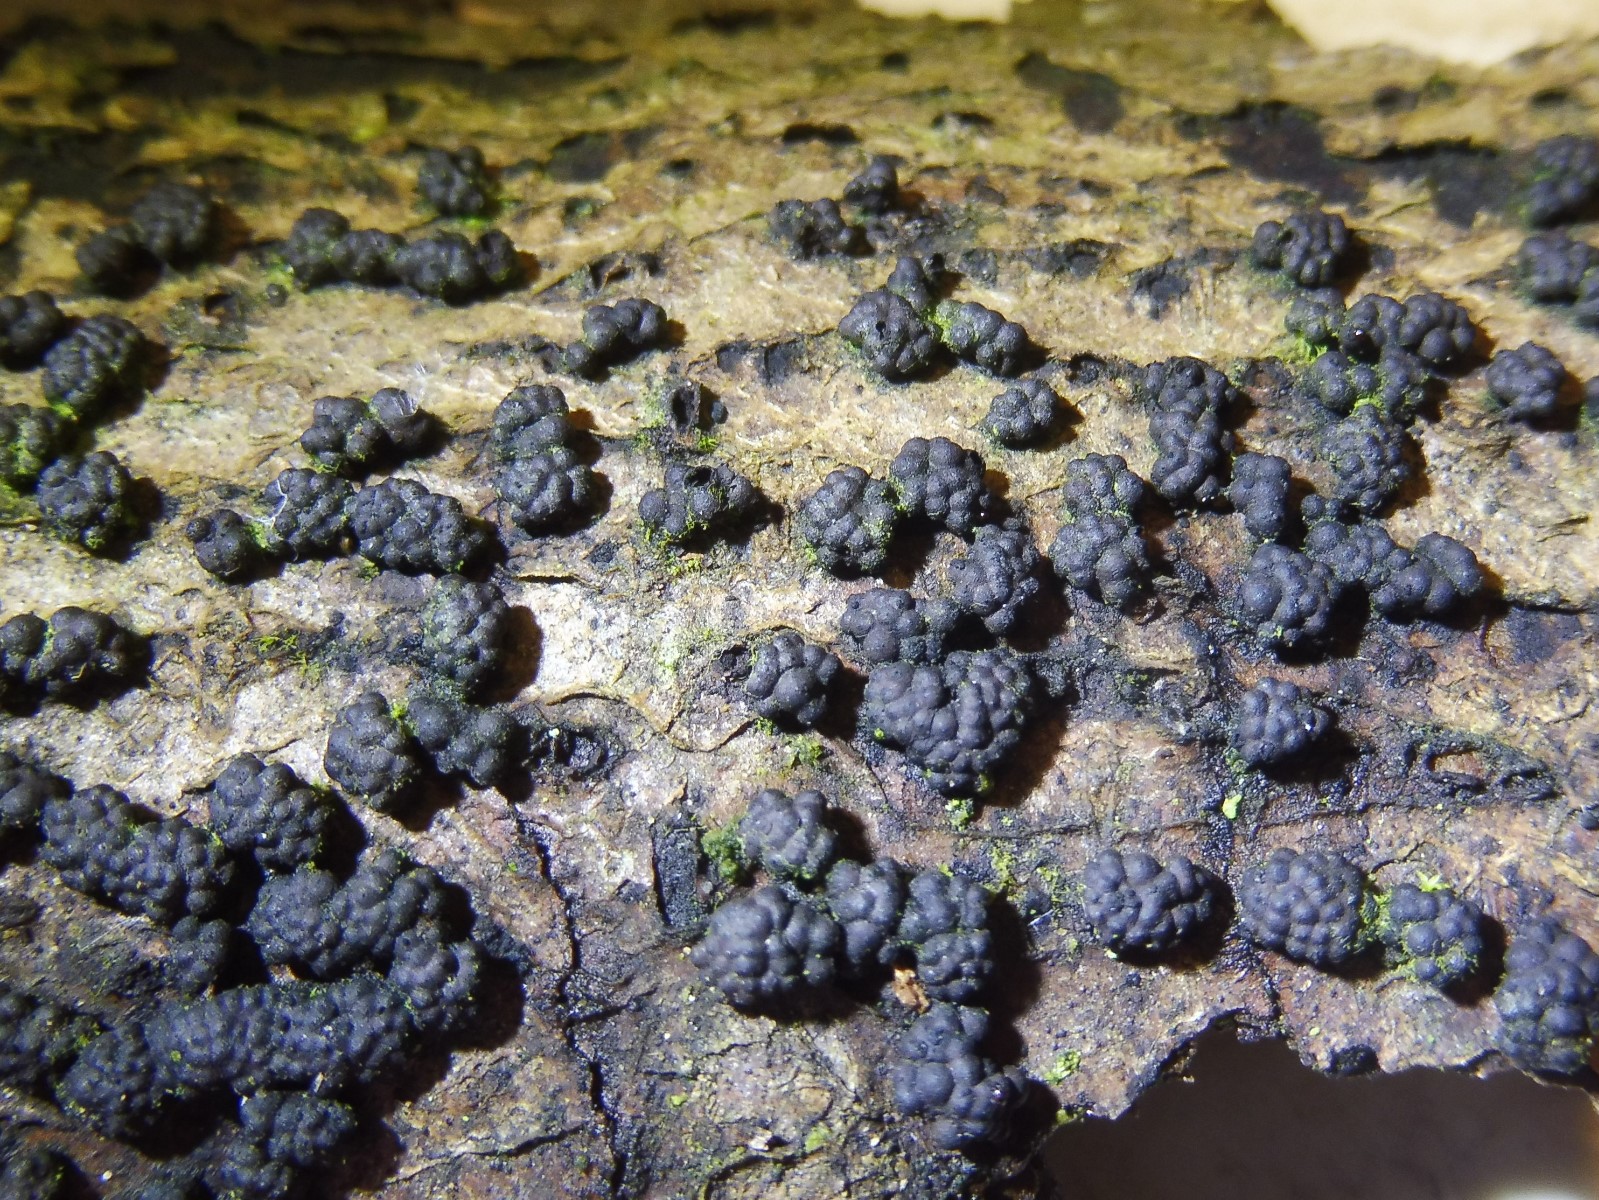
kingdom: Fungi
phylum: Ascomycota
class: Sordariomycetes
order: Xylariales
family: Hypoxylaceae
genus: Jackrogersella
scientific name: Jackrogersella cohaerens
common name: sammenflydende kulbær
